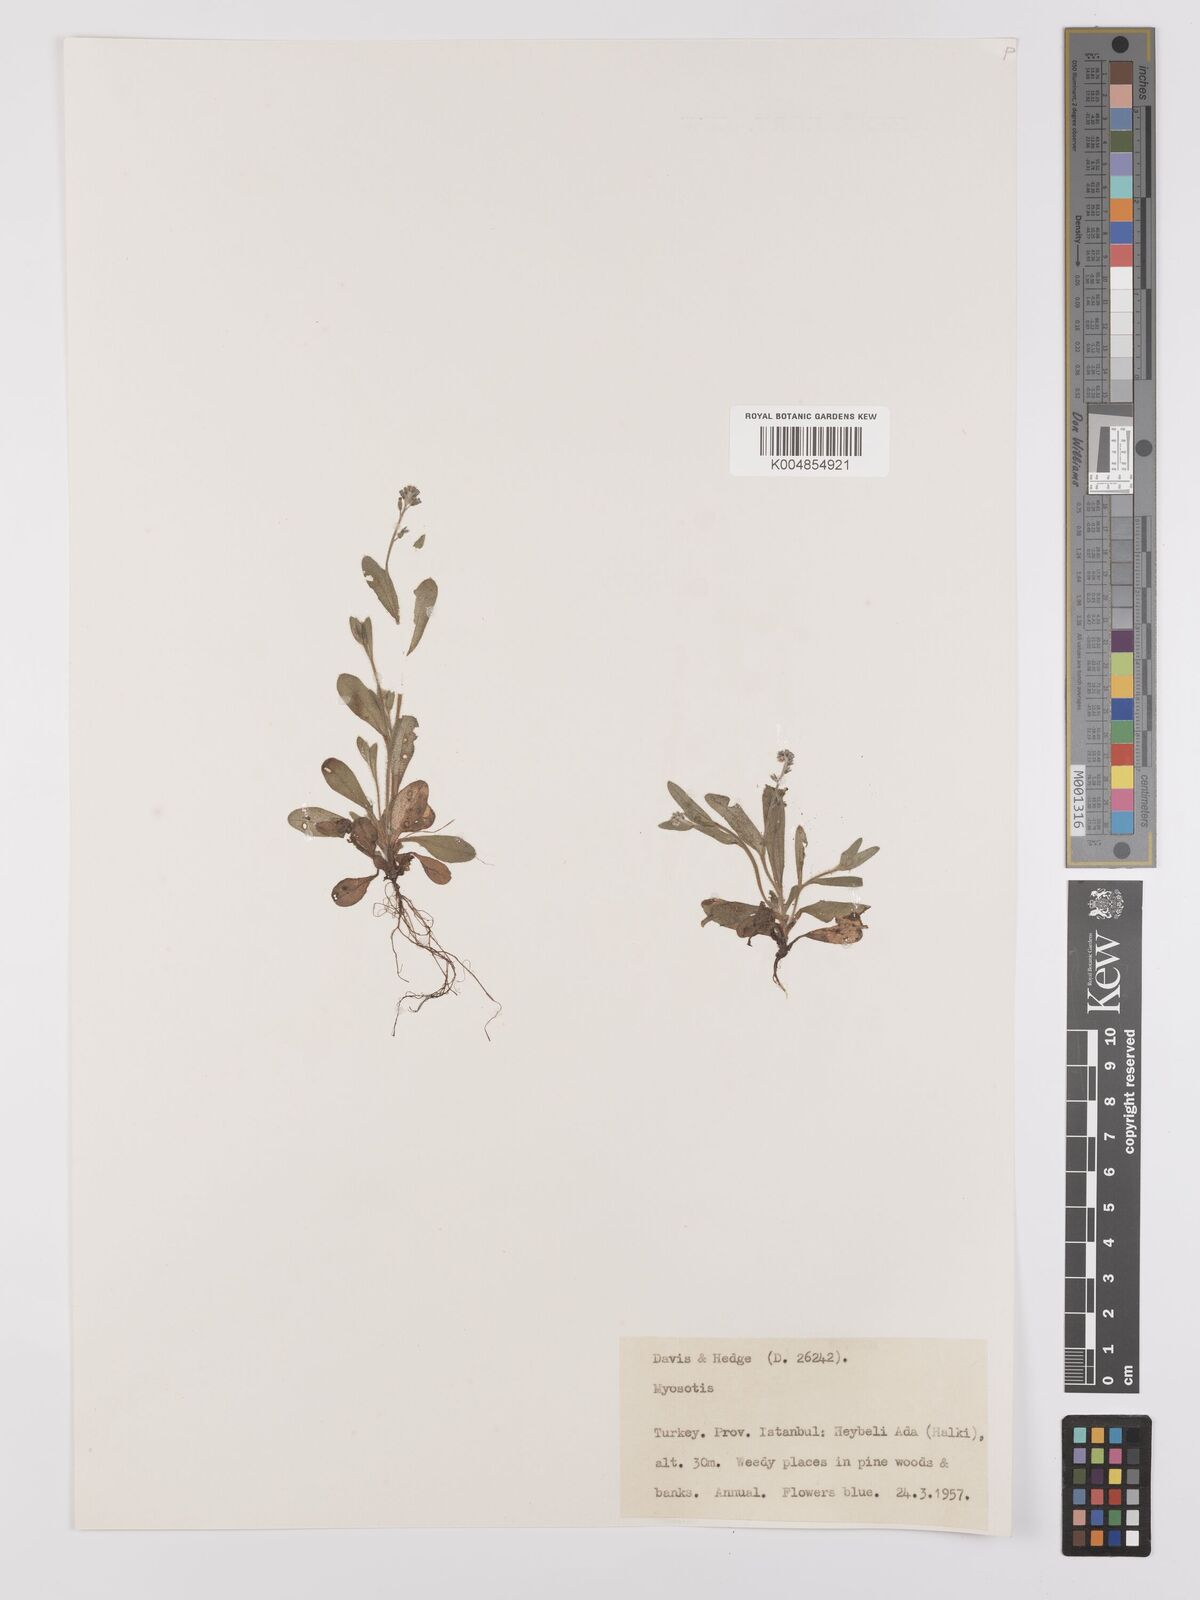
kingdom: Plantae
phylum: Tracheophyta
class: Magnoliopsida
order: Boraginales
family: Boraginaceae
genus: Myosotis
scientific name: Myosotis
